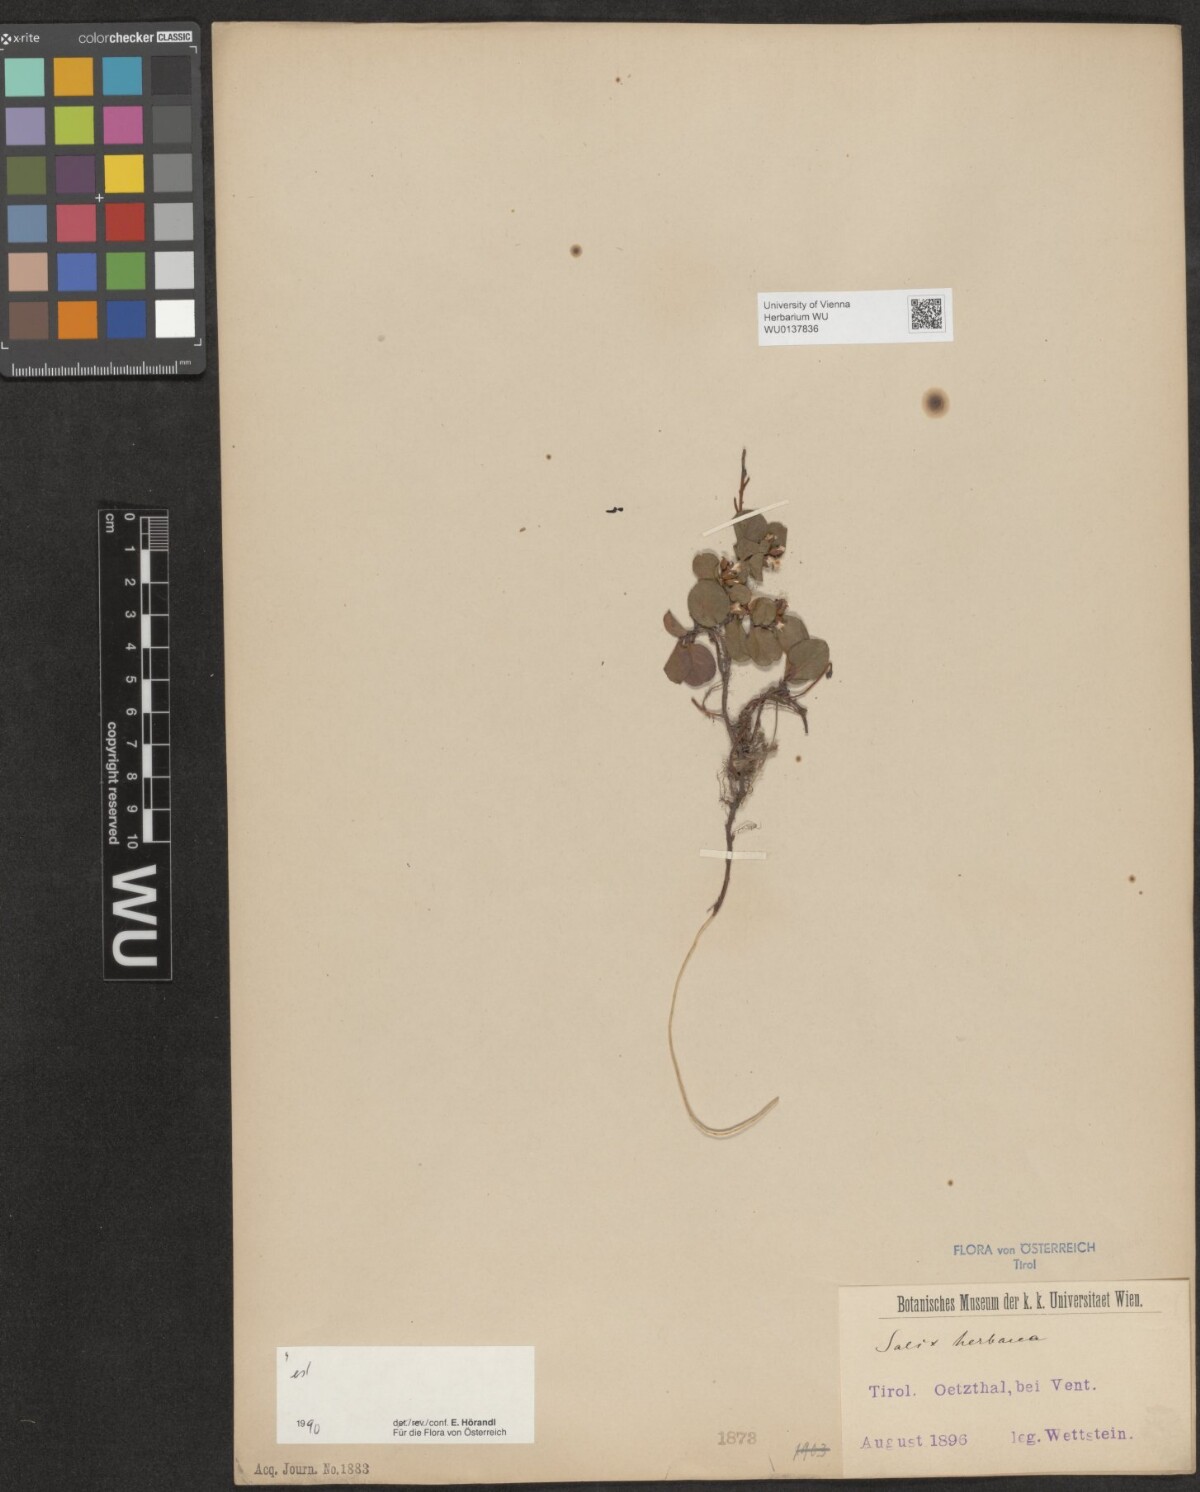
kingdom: Plantae
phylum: Tracheophyta
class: Magnoliopsida
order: Malpighiales
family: Salicaceae
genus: Salix
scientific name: Salix herbacea
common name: Dwarf willow
